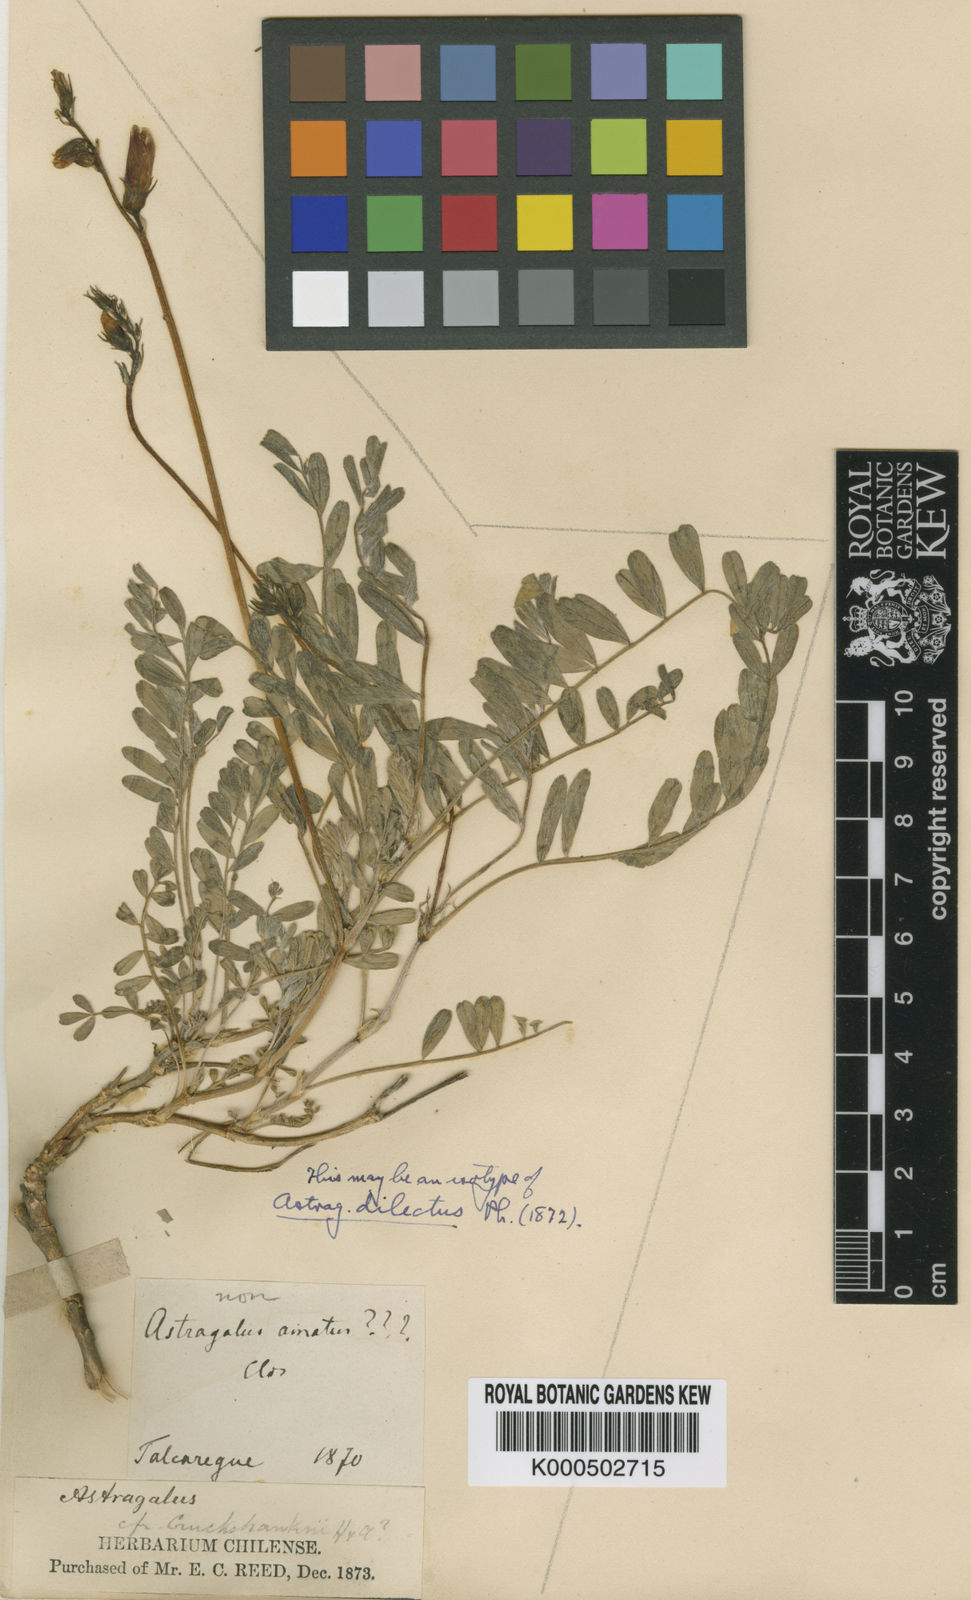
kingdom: Plantae
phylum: Tracheophyta
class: Magnoliopsida
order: Fabales
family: Fabaceae
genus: Astragalus
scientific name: Astragalus cruckshanksii
